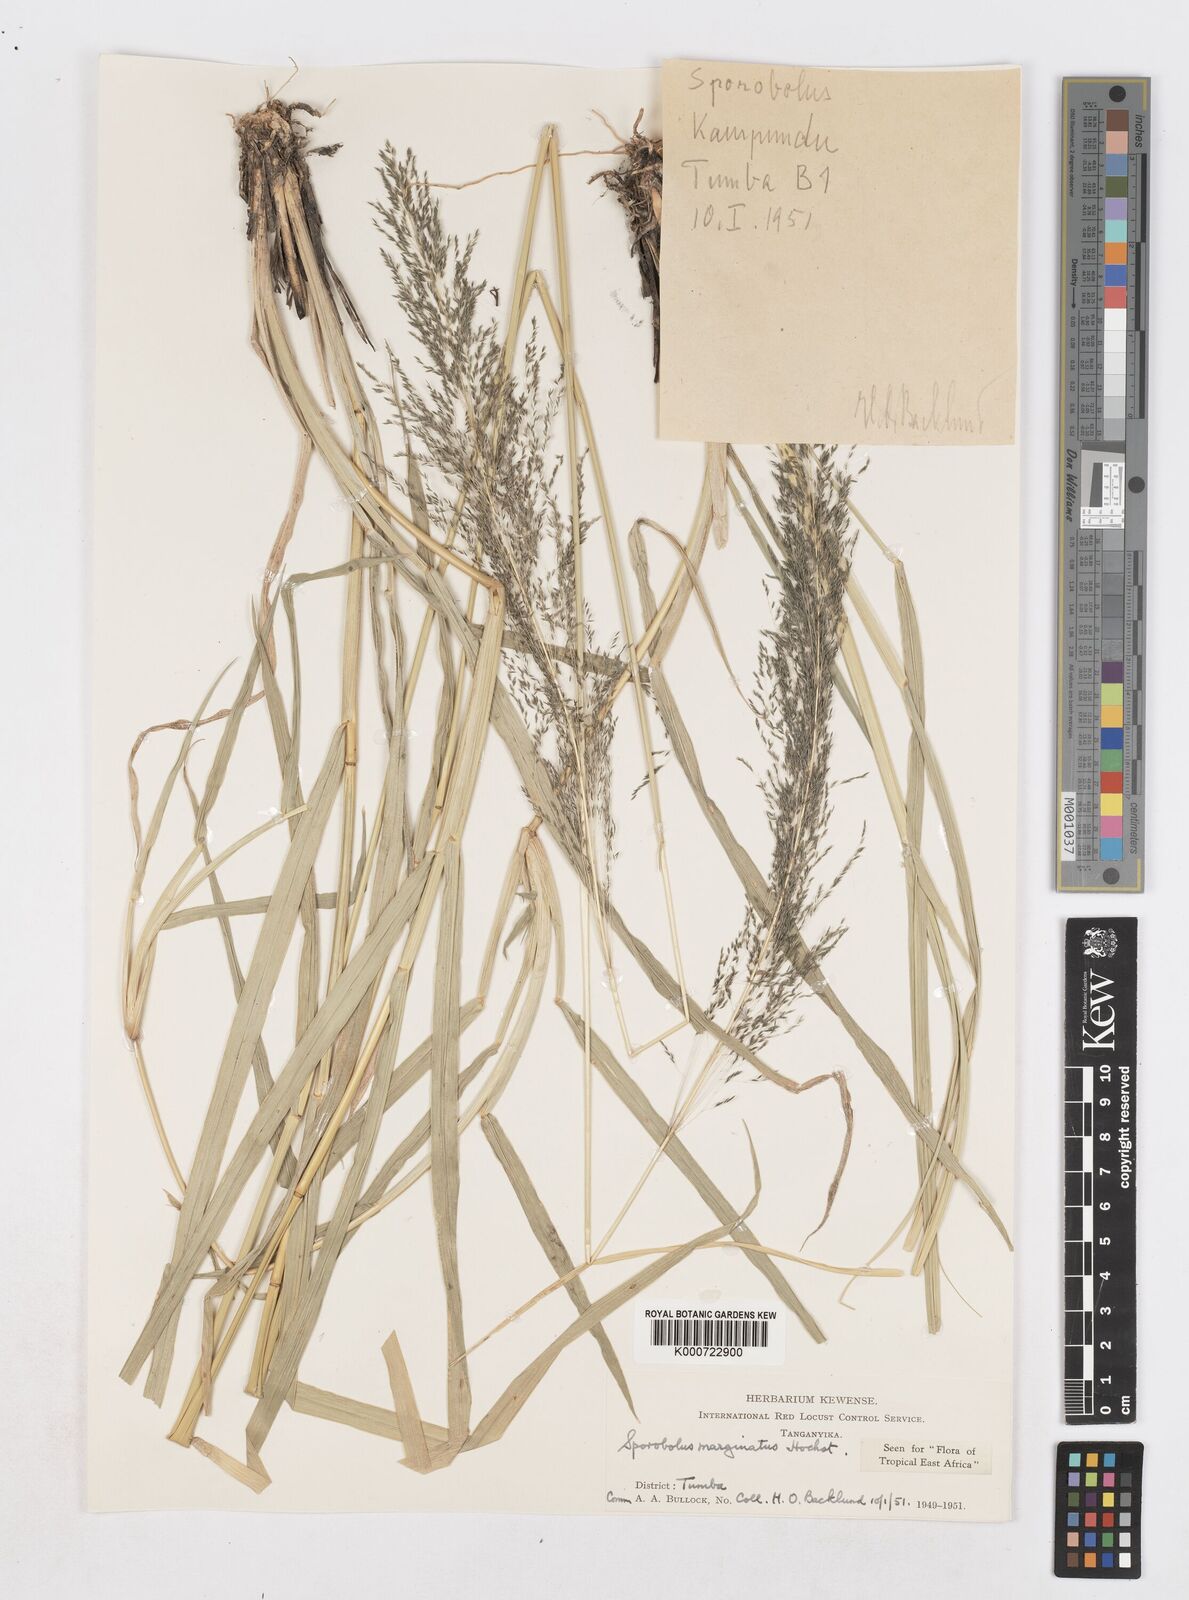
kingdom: Plantae
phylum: Tracheophyta
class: Liliopsida
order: Poales
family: Poaceae
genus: Sporobolus
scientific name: Sporobolus ioclados
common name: Pan dropseed
